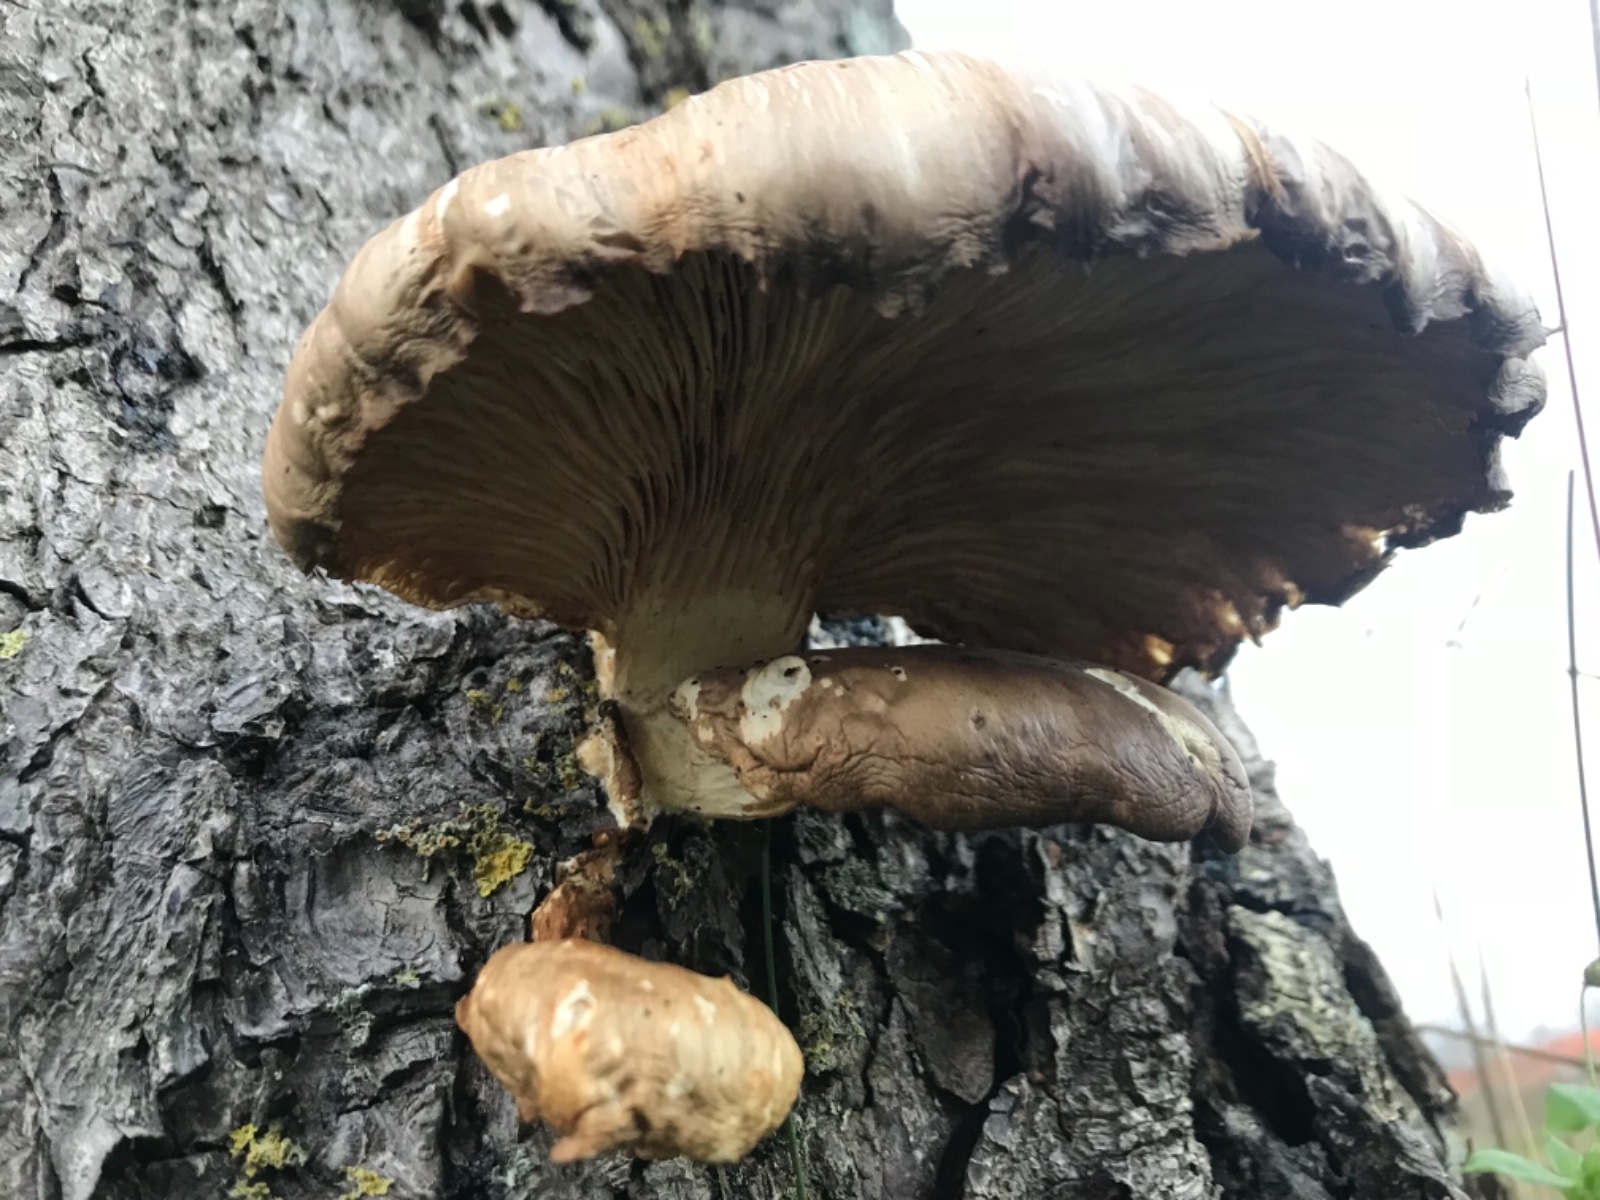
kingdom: Fungi
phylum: Basidiomycota
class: Agaricomycetes
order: Agaricales
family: Pleurotaceae
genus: Pleurotus
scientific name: Pleurotus ostreatus
